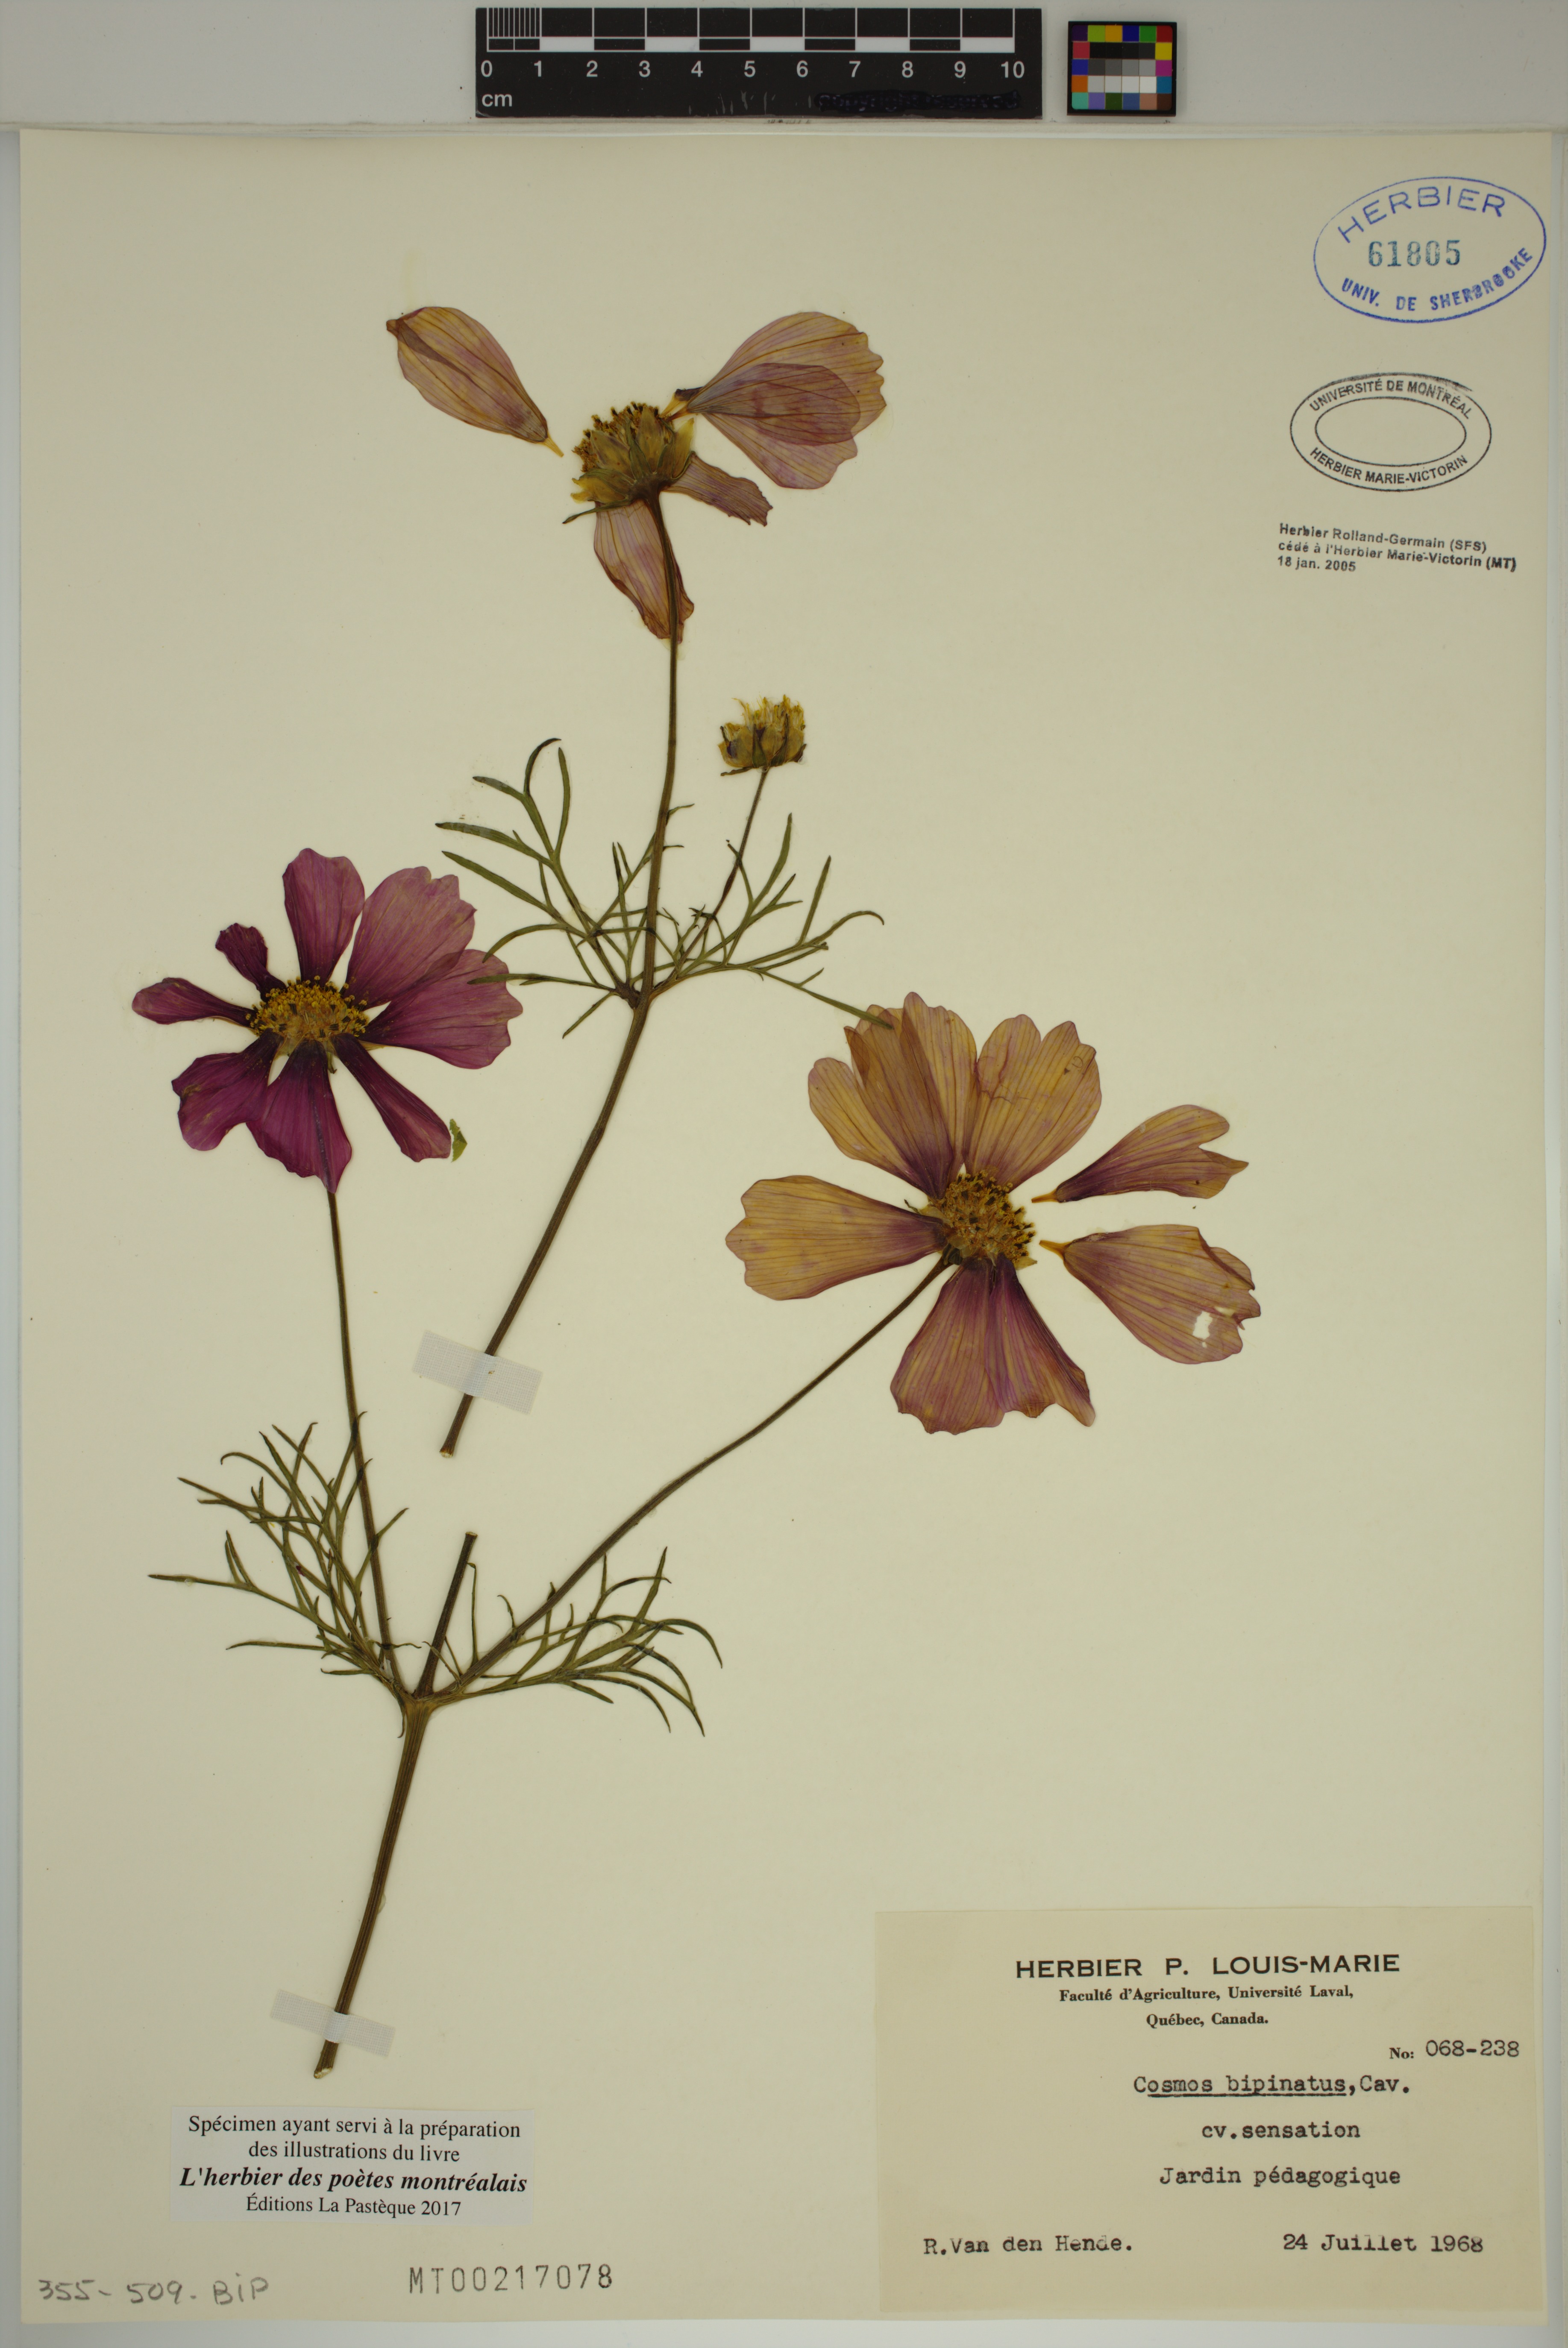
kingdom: Plantae
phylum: Tracheophyta
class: Magnoliopsida
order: Asterales
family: Asteraceae
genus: Cosmos
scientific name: Cosmos Cosmus bipinnatus
